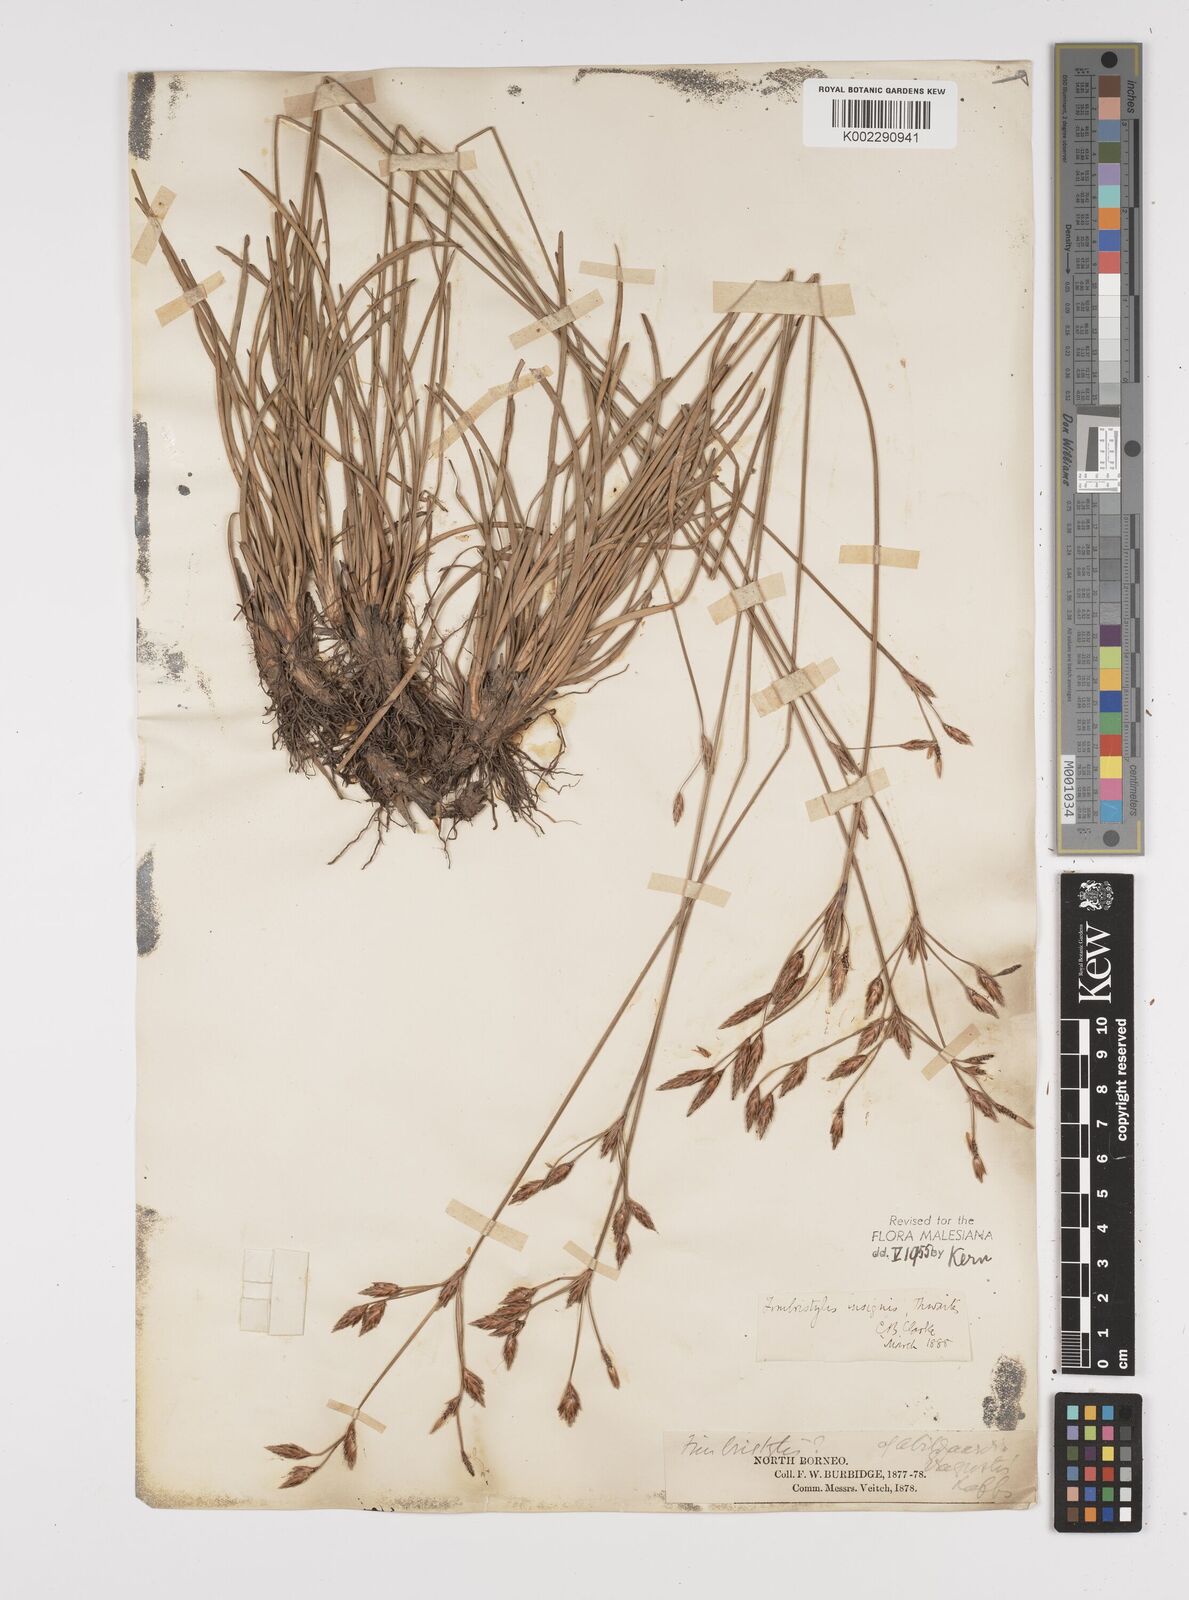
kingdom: Plantae
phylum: Tracheophyta
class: Liliopsida
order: Poales
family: Cyperaceae
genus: Fimbristylis
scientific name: Fimbristylis insignis
